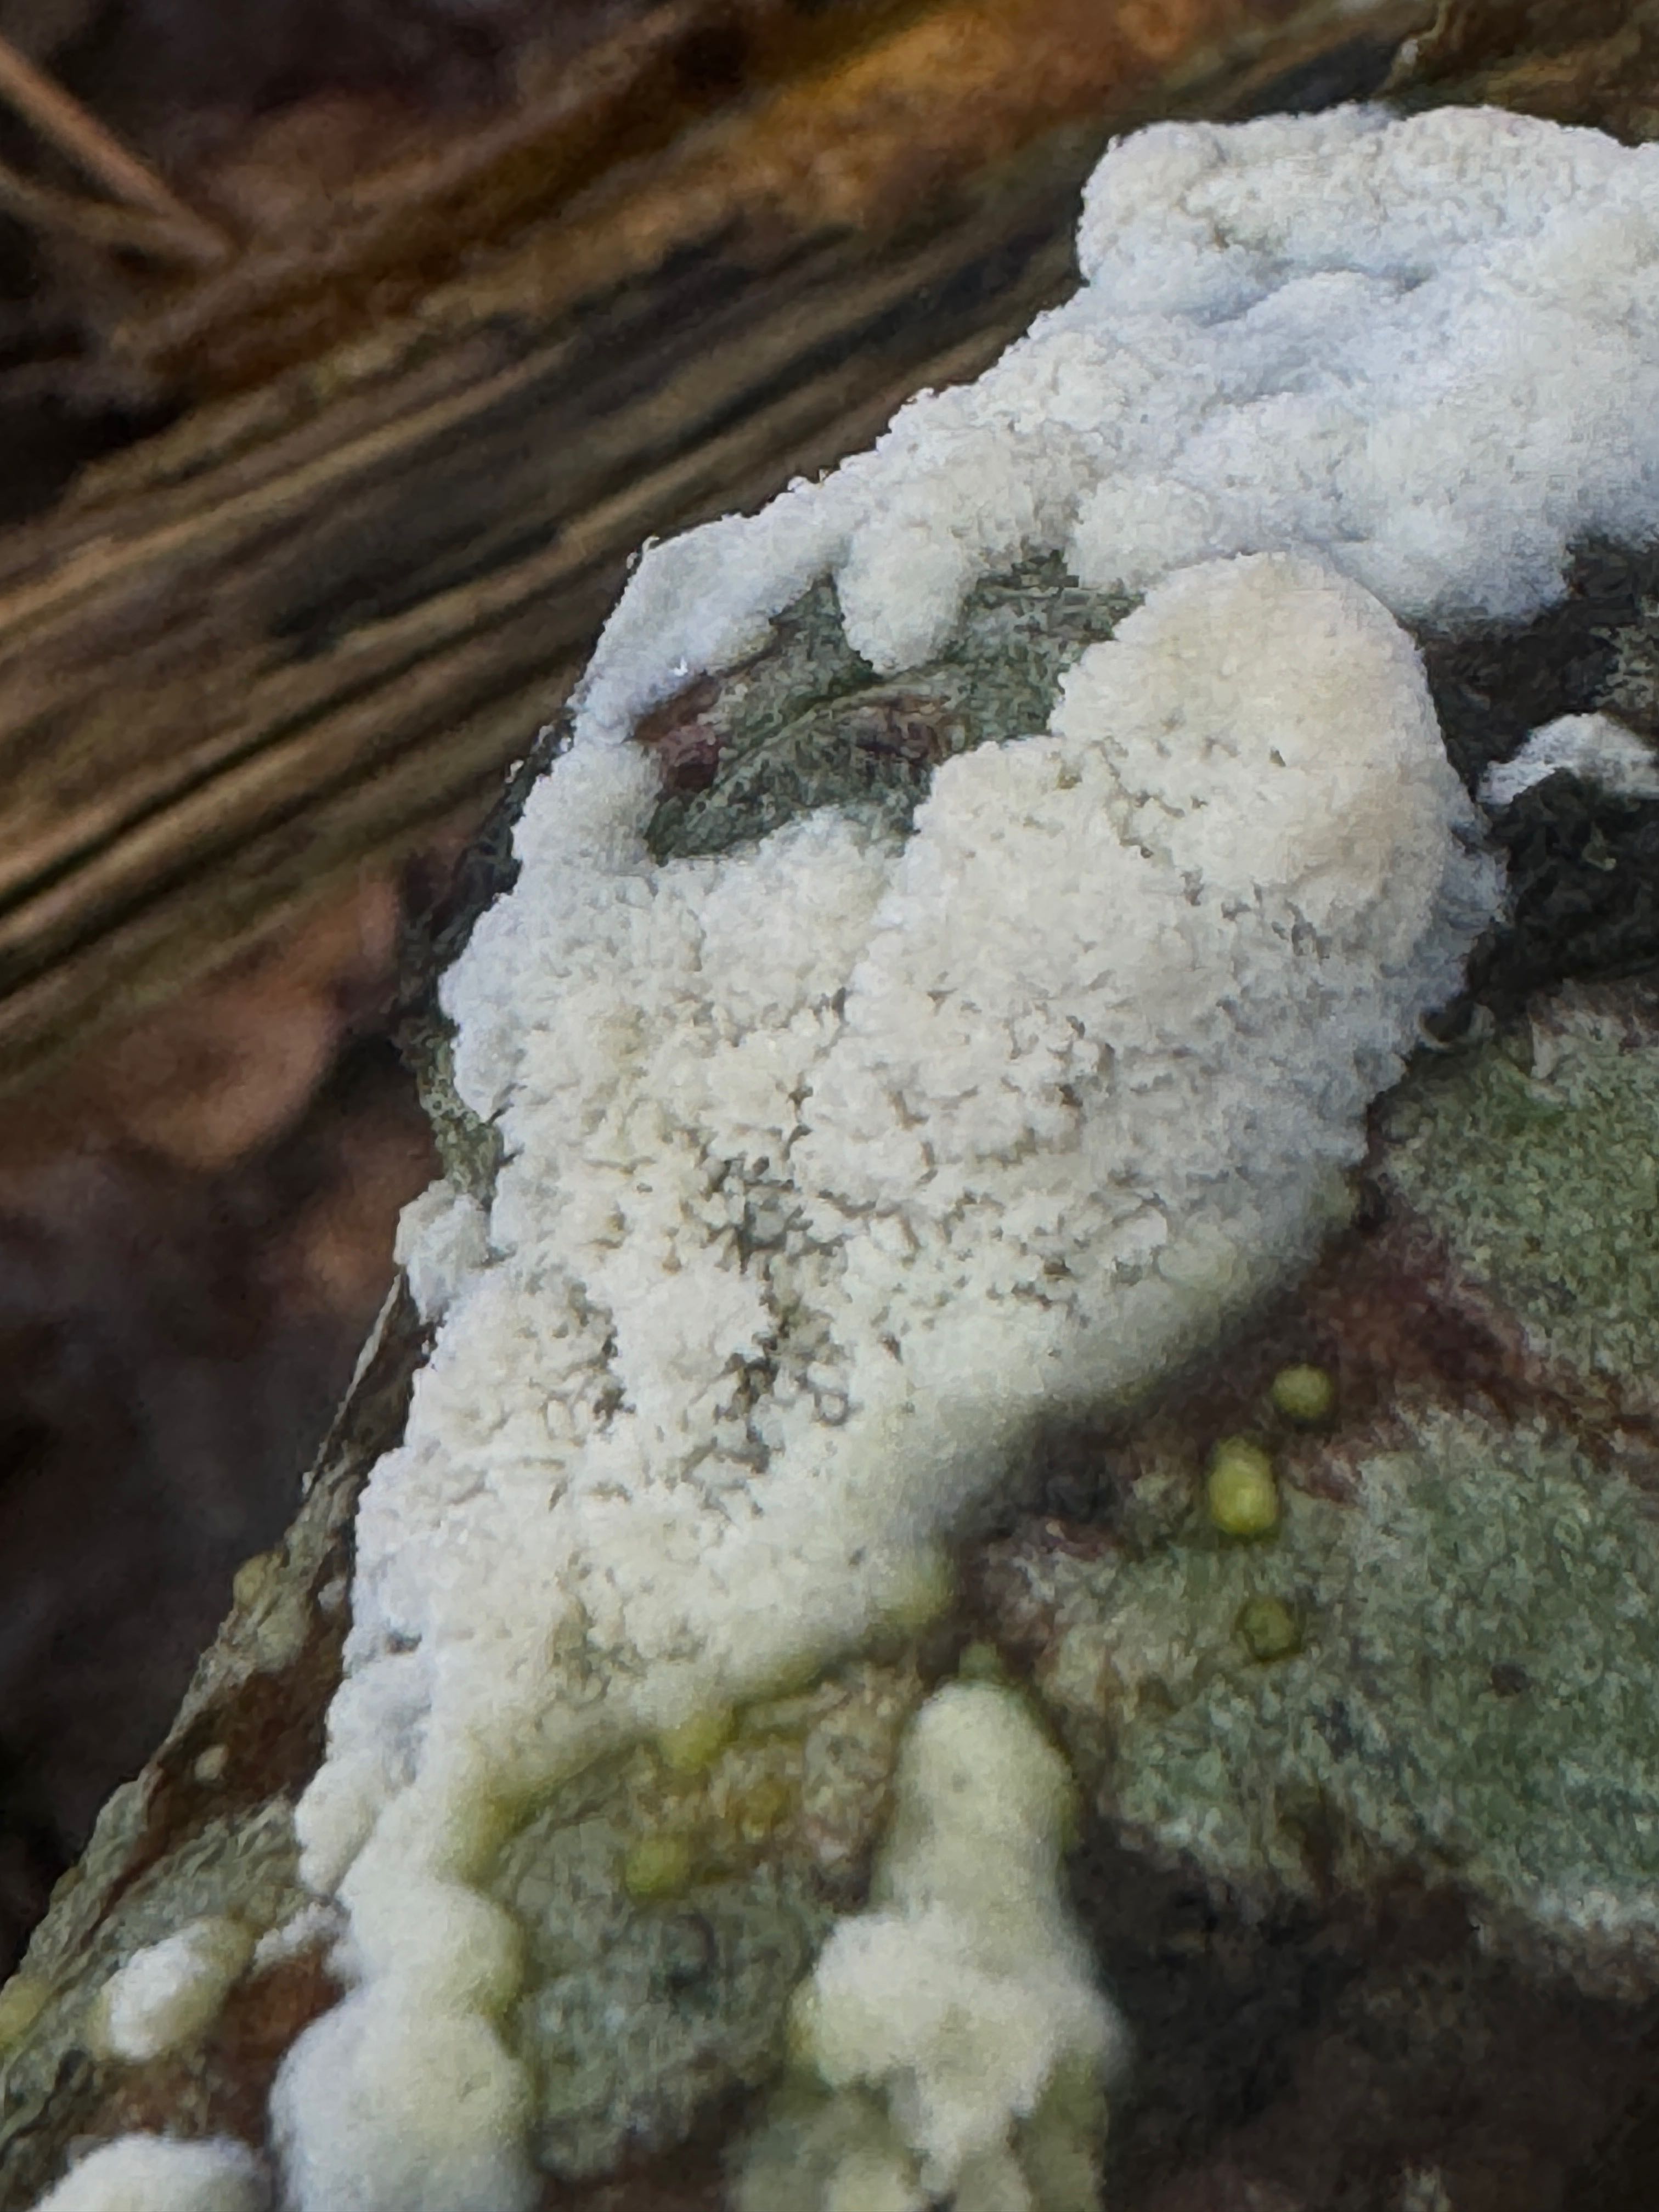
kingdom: Fungi
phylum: Basidiomycota
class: Agaricomycetes
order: Hymenochaetales
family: Schizoporaceae
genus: Schizopora
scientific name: Schizopora paradoxa
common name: hvid tandsvamp
